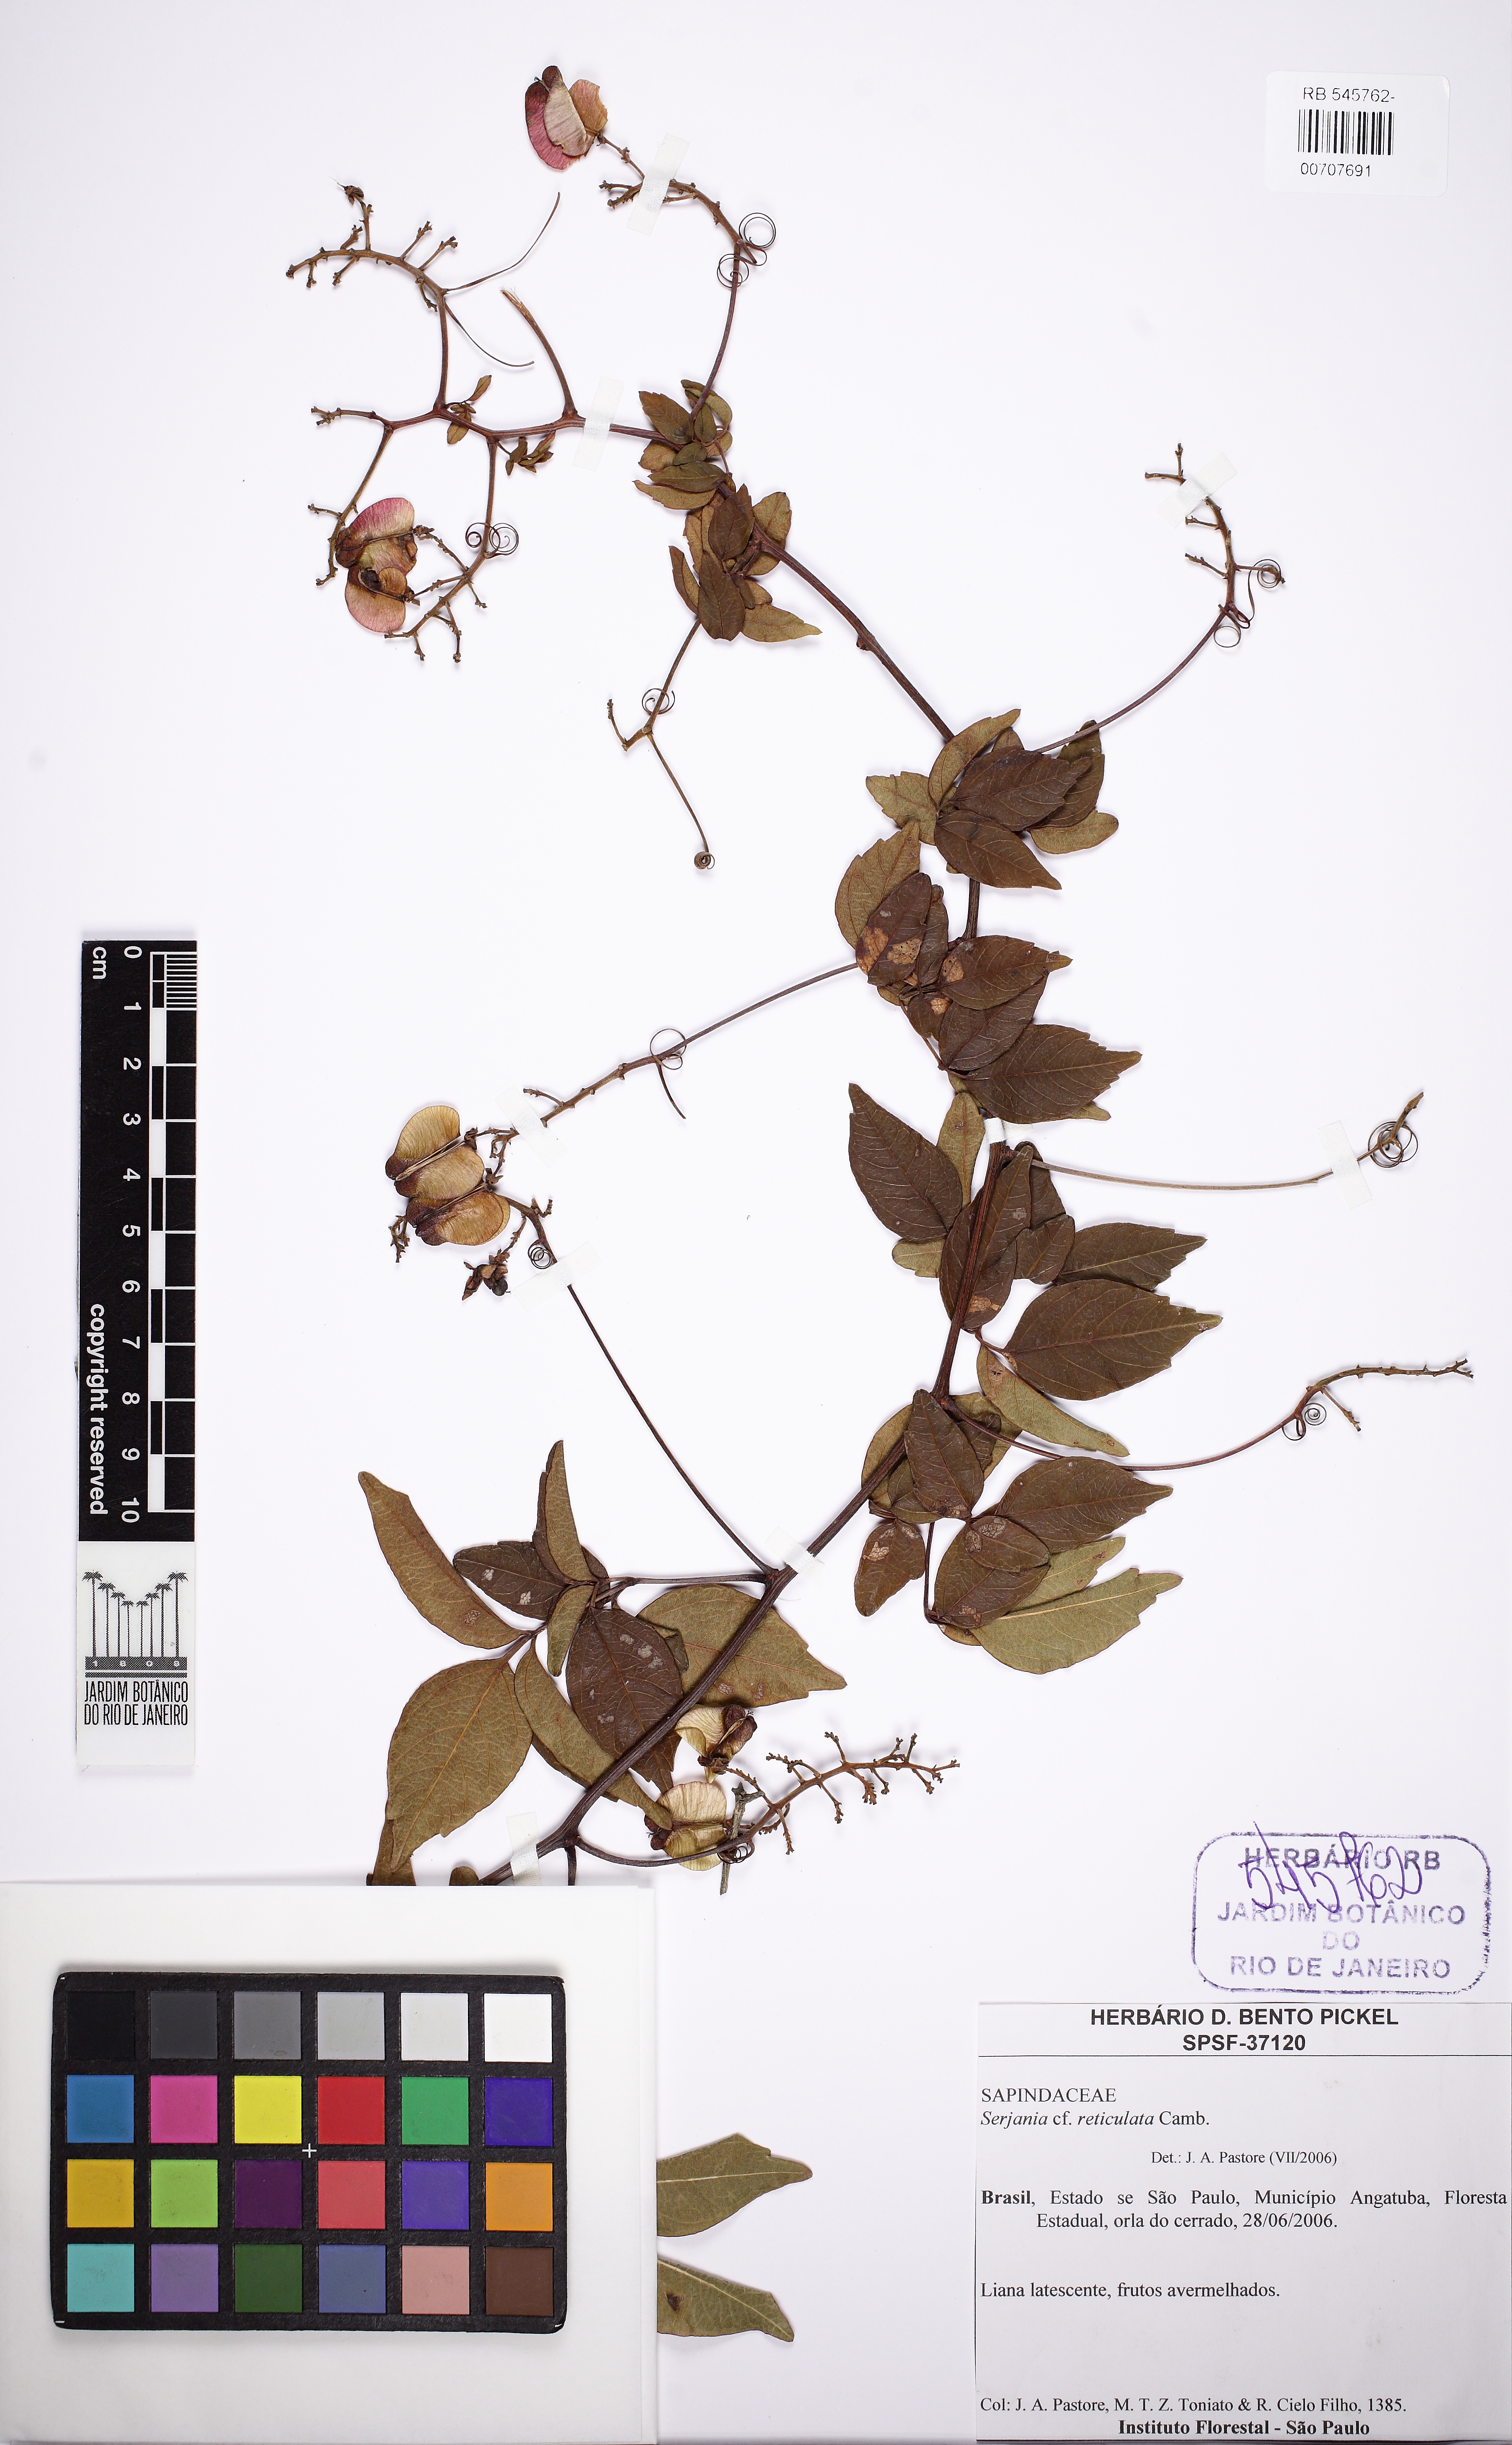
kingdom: Plantae
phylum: Tracheophyta
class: Magnoliopsida
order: Sapindales
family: Sapindaceae
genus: Serjania
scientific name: Serjania reticulata
